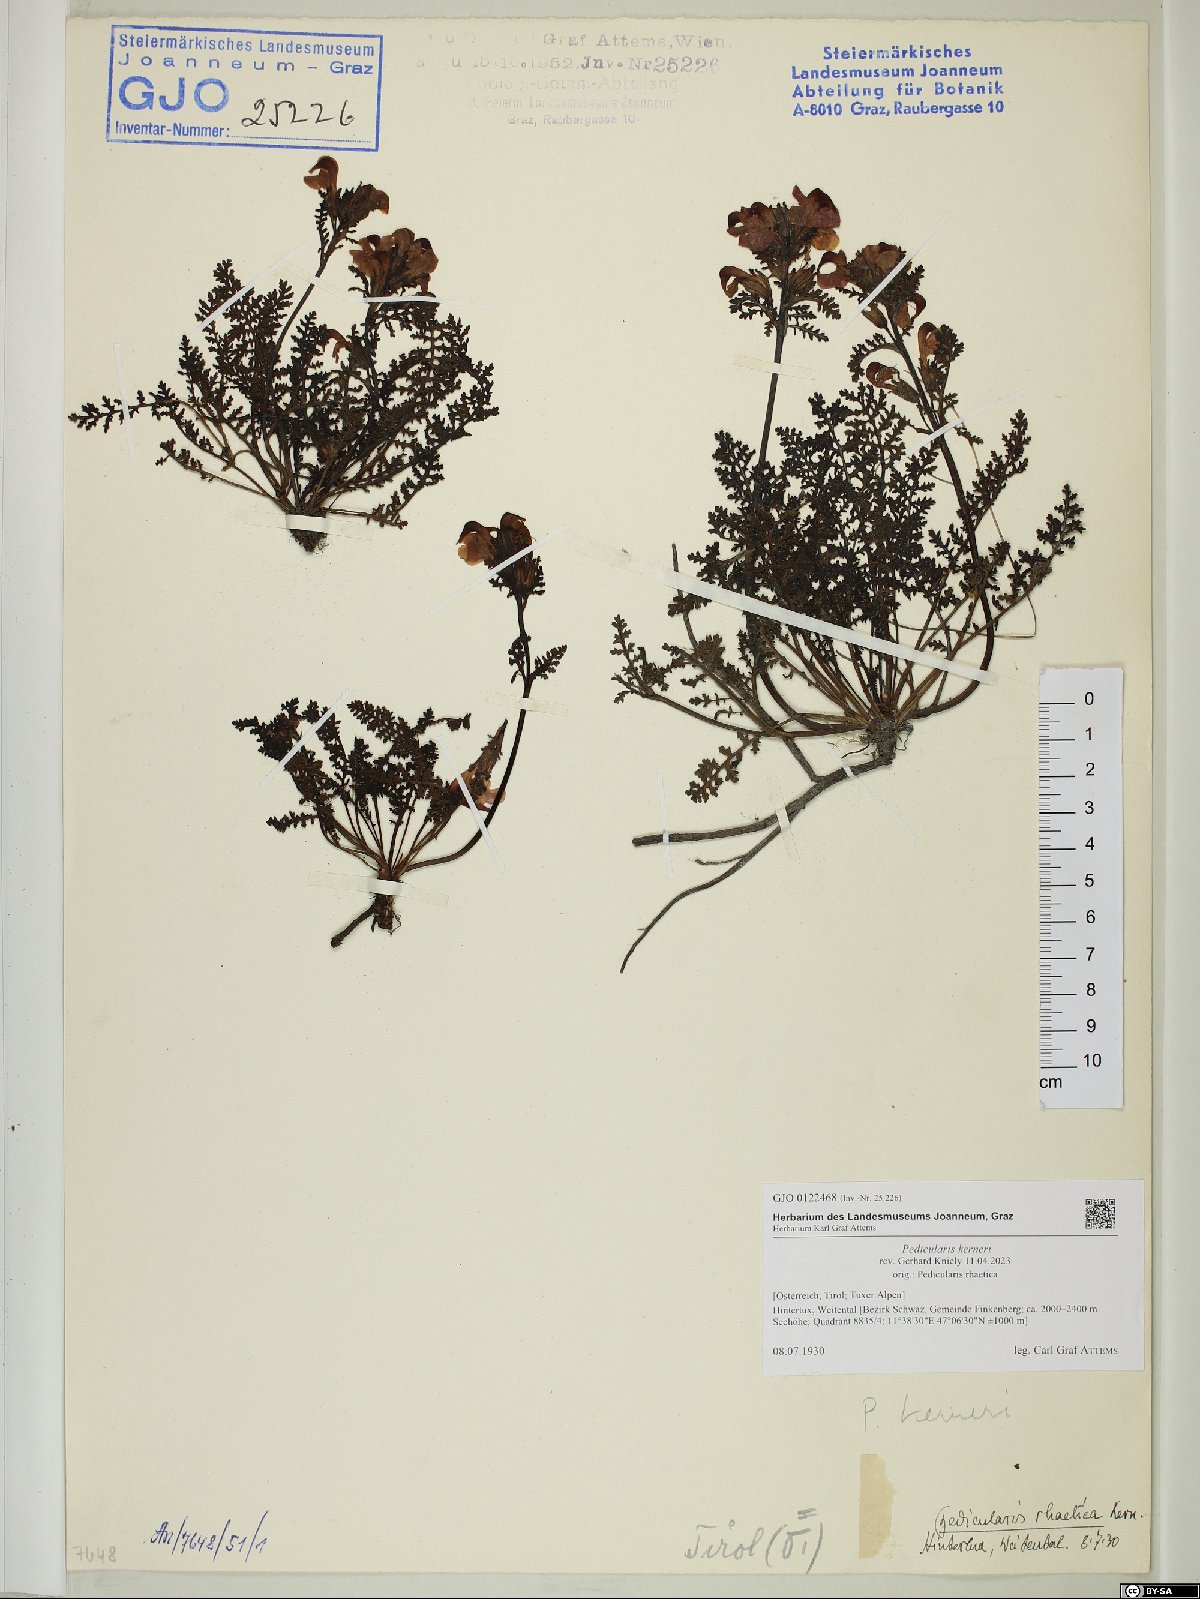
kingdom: Plantae
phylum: Tracheophyta
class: Magnoliopsida
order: Lamiales
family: Orobanchaceae
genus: Pedicularis
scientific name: Pedicularis kerneri
